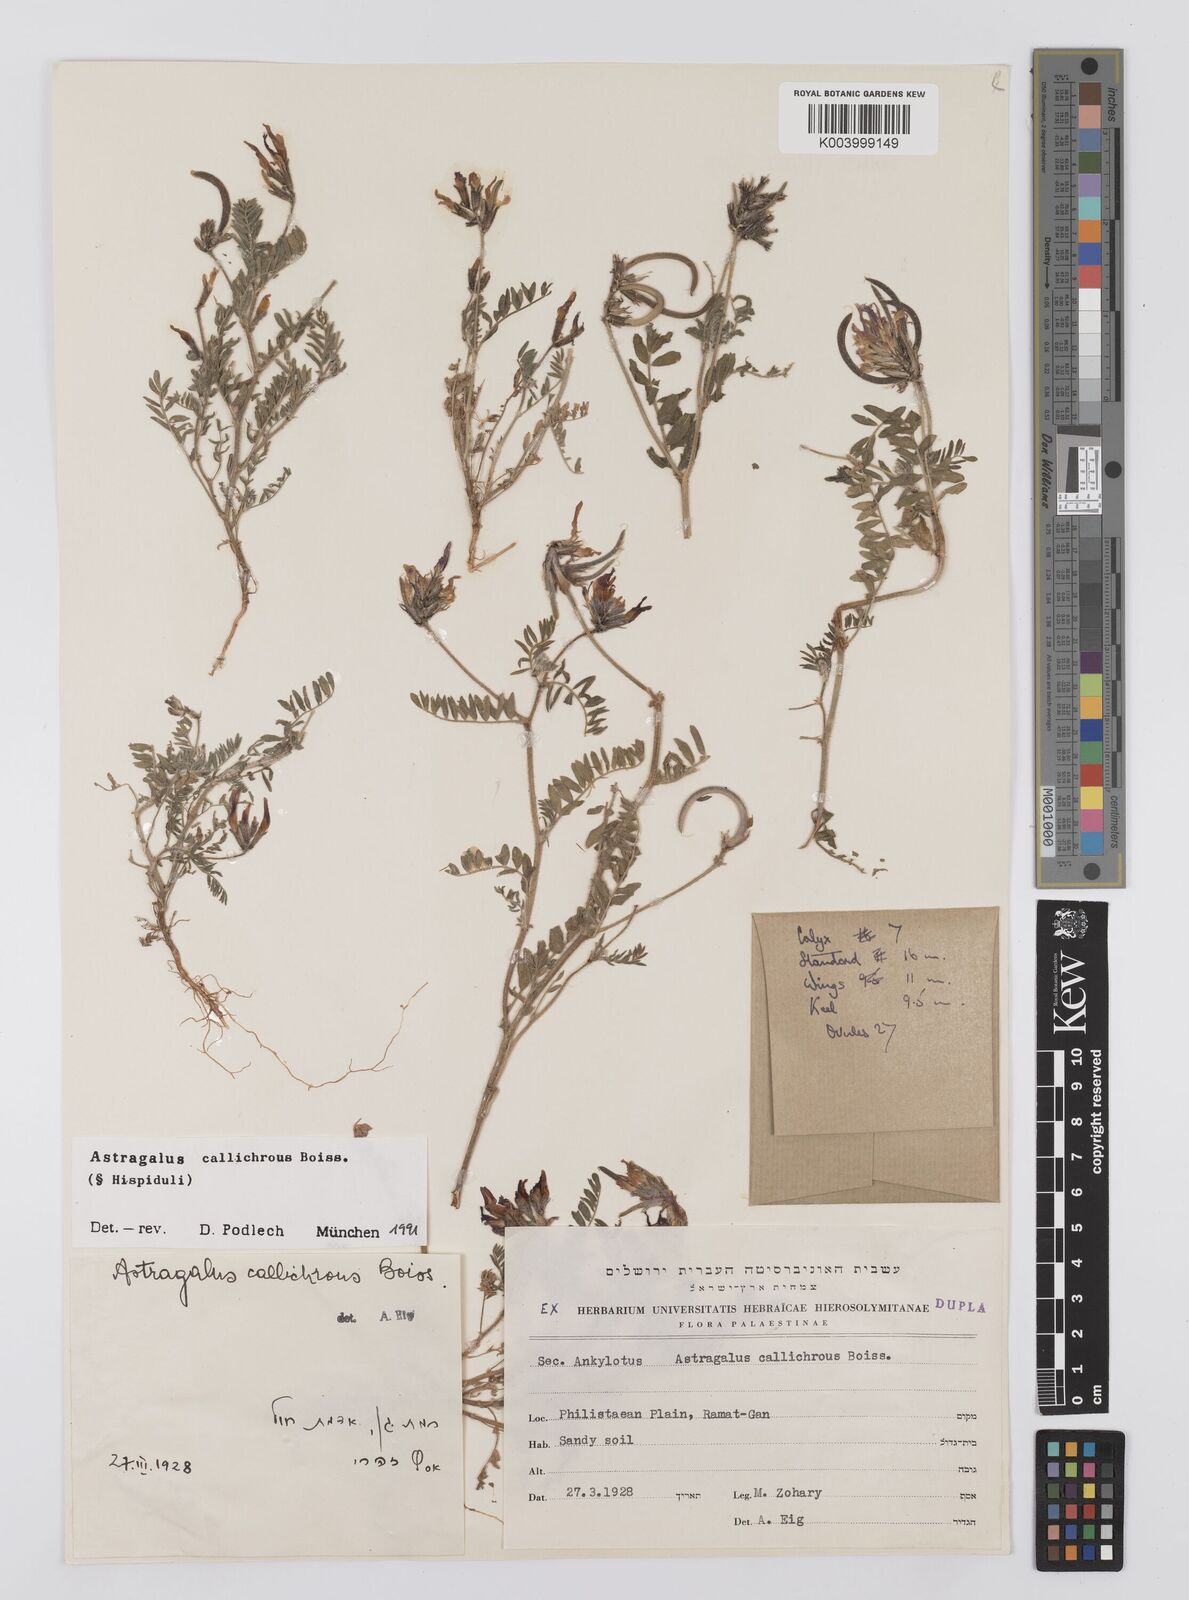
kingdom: Plantae
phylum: Tracheophyta
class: Magnoliopsida
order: Fabales
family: Fabaceae
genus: Astragalus
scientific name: Astragalus callichrous
